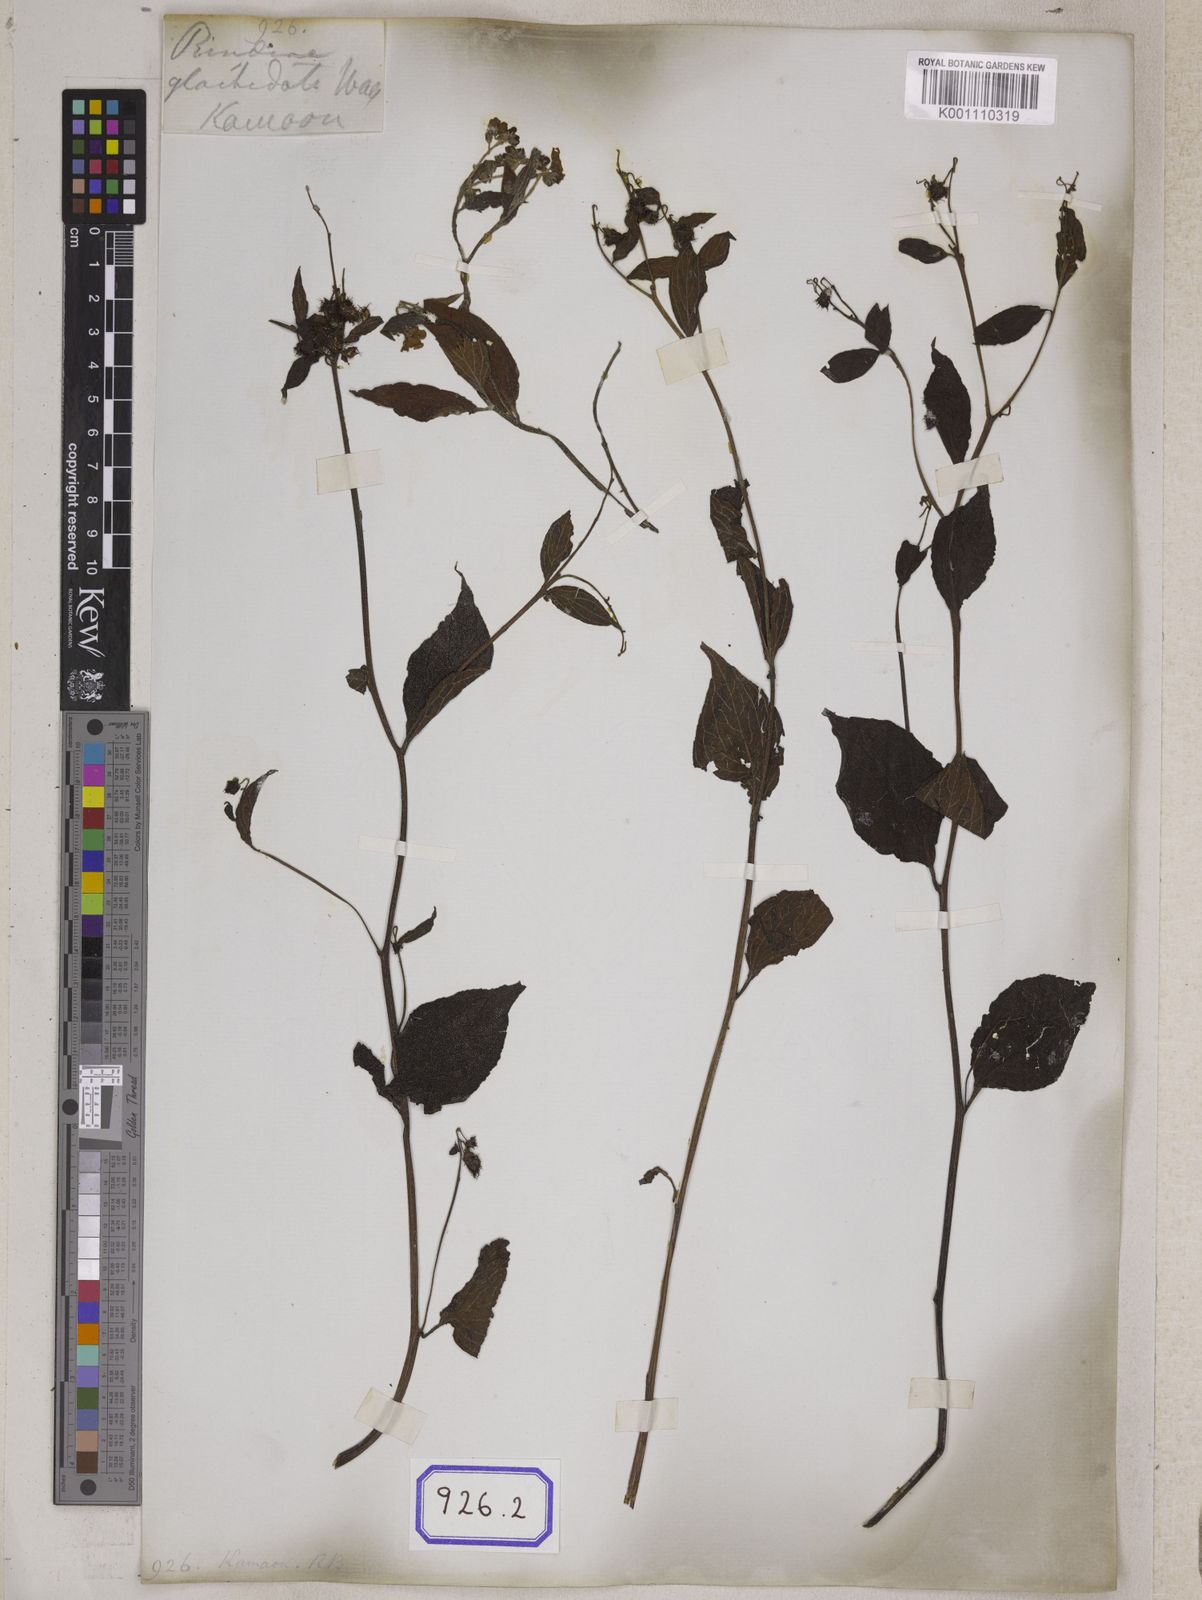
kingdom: Plantae
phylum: Tracheophyta
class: Magnoliopsida
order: Boraginales
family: Boraginaceae
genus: Hackelia
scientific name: Hackelia uncinata
